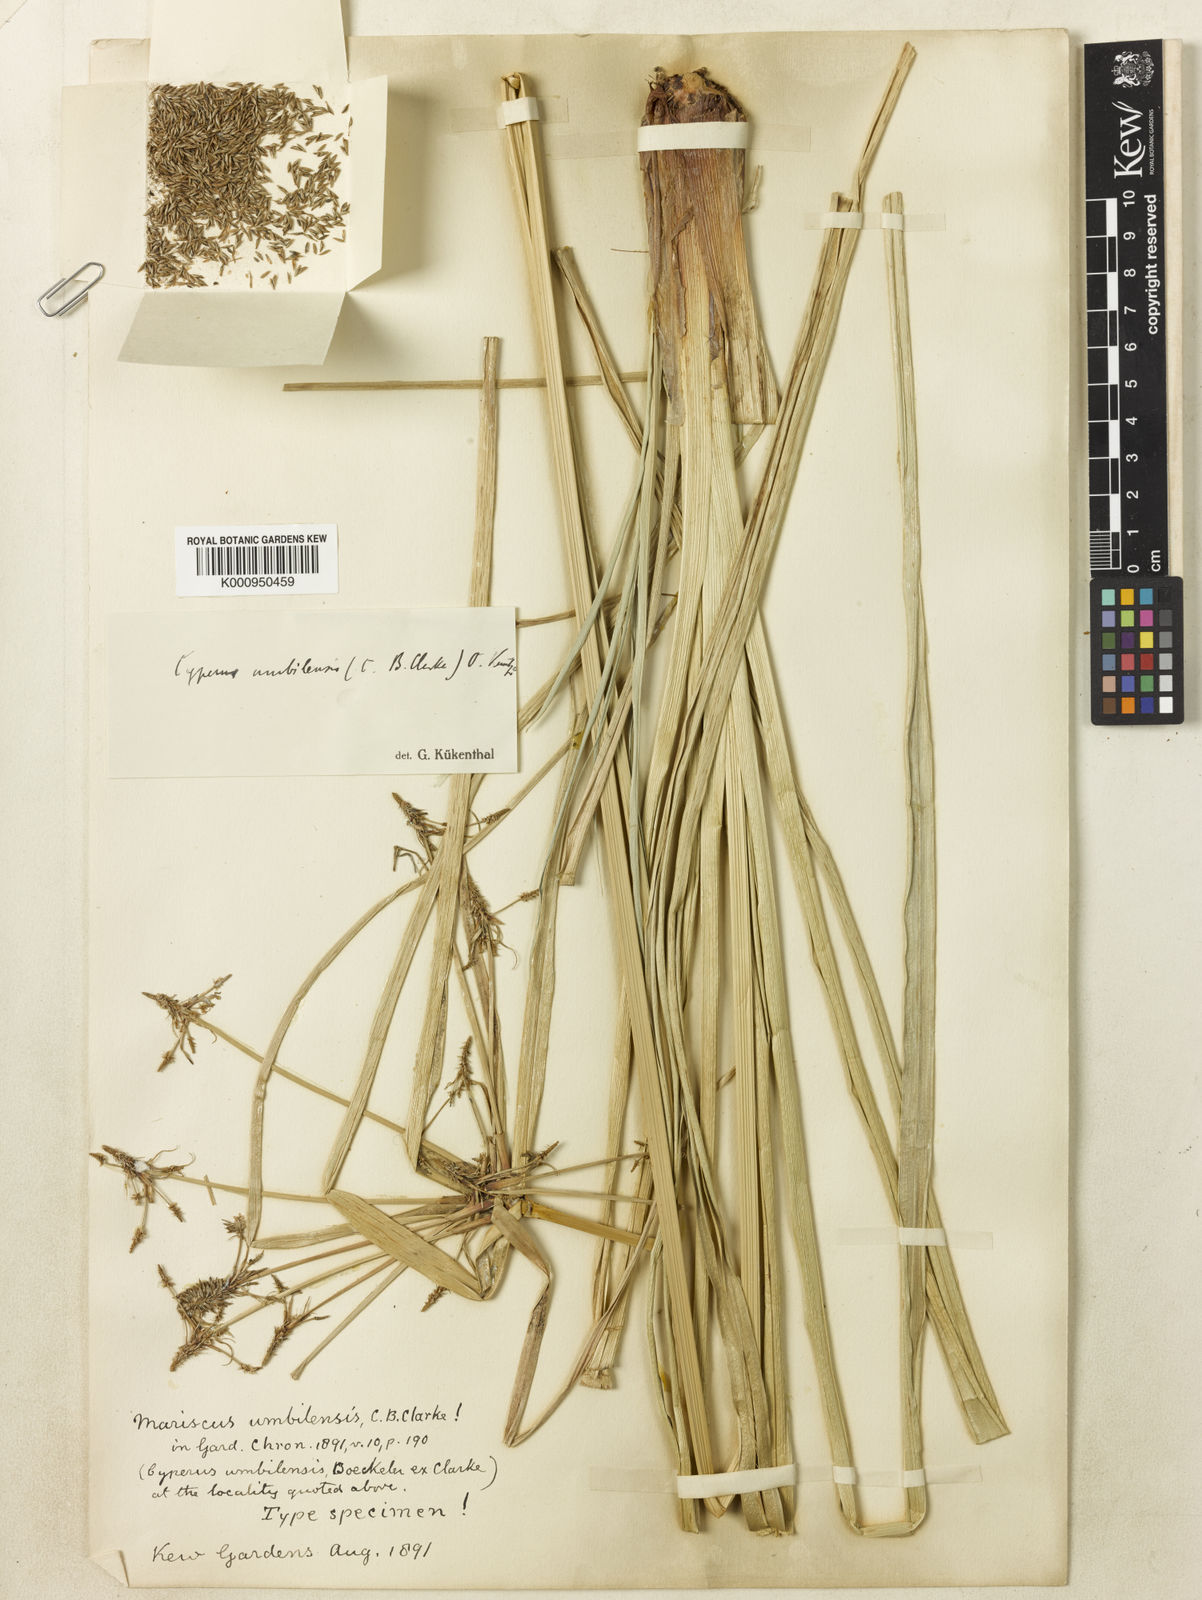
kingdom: Plantae
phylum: Tracheophyta
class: Liliopsida
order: Poales
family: Cyperaceae
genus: Cyperus
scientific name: Cyperus owanii
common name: Owan's flatsedge
